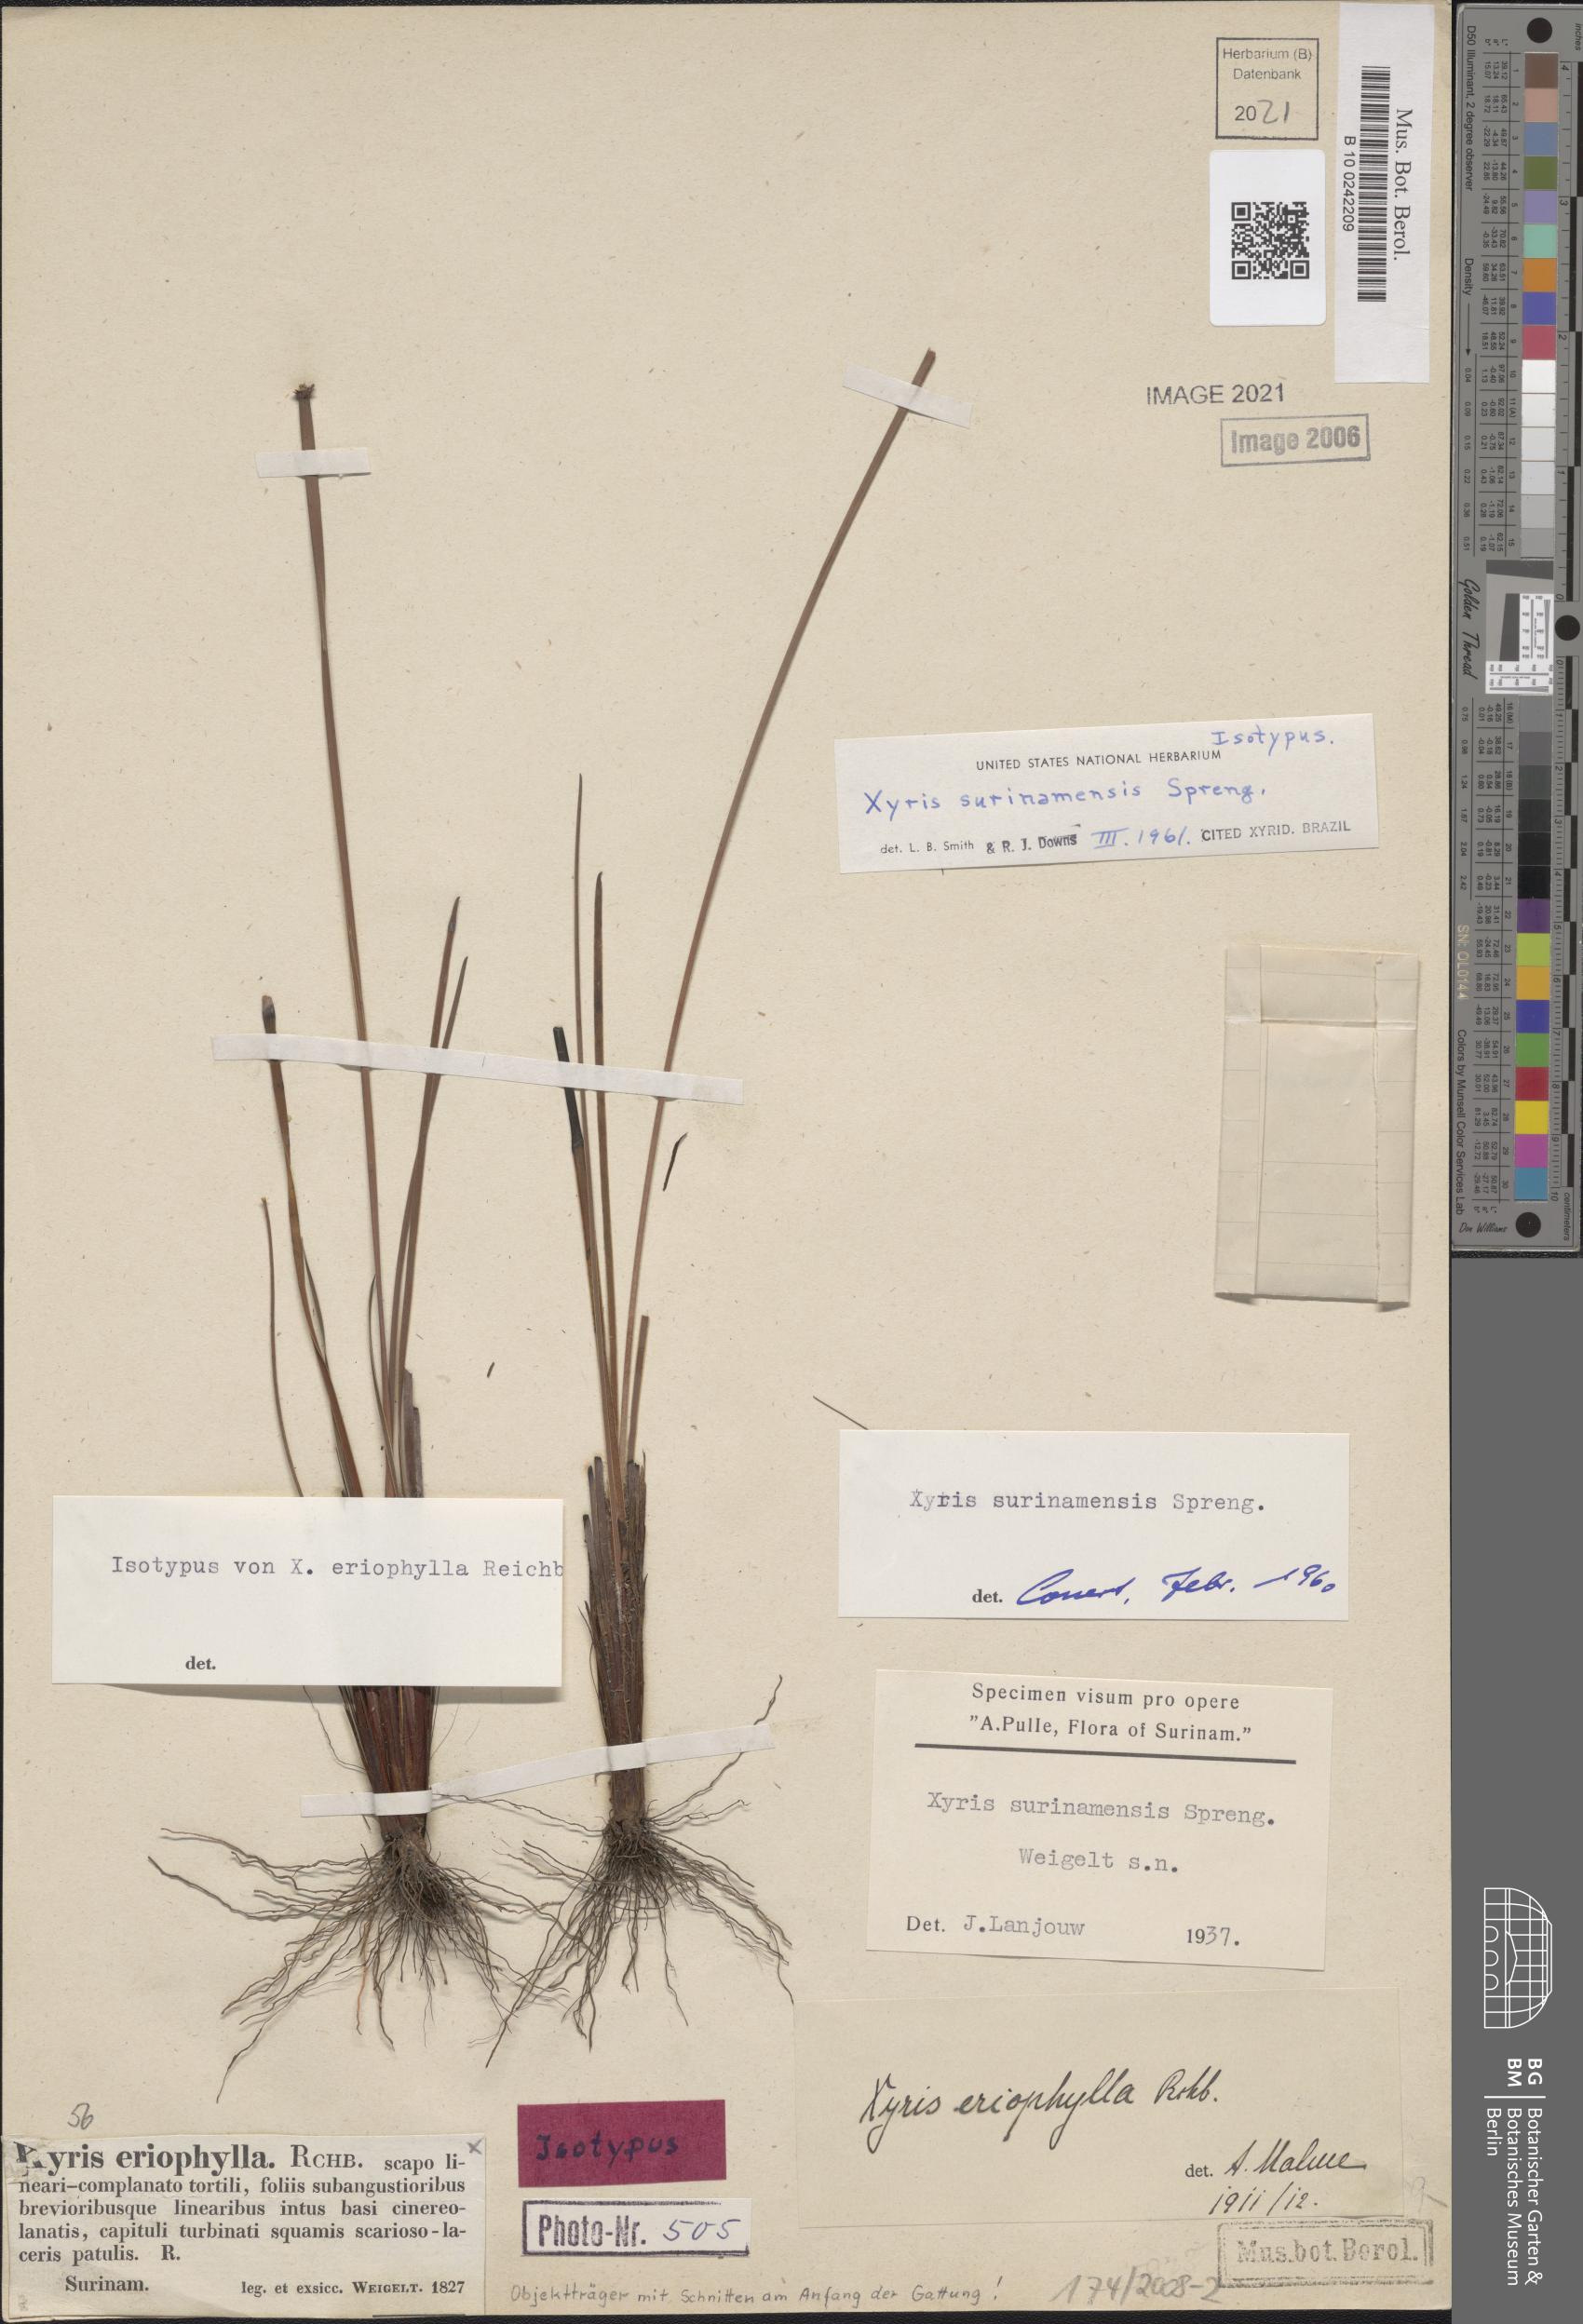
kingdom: Plantae
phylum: Tracheophyta
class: Liliopsida
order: Poales
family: Xyridaceae
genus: Xyris
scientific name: Xyris surinamensis
